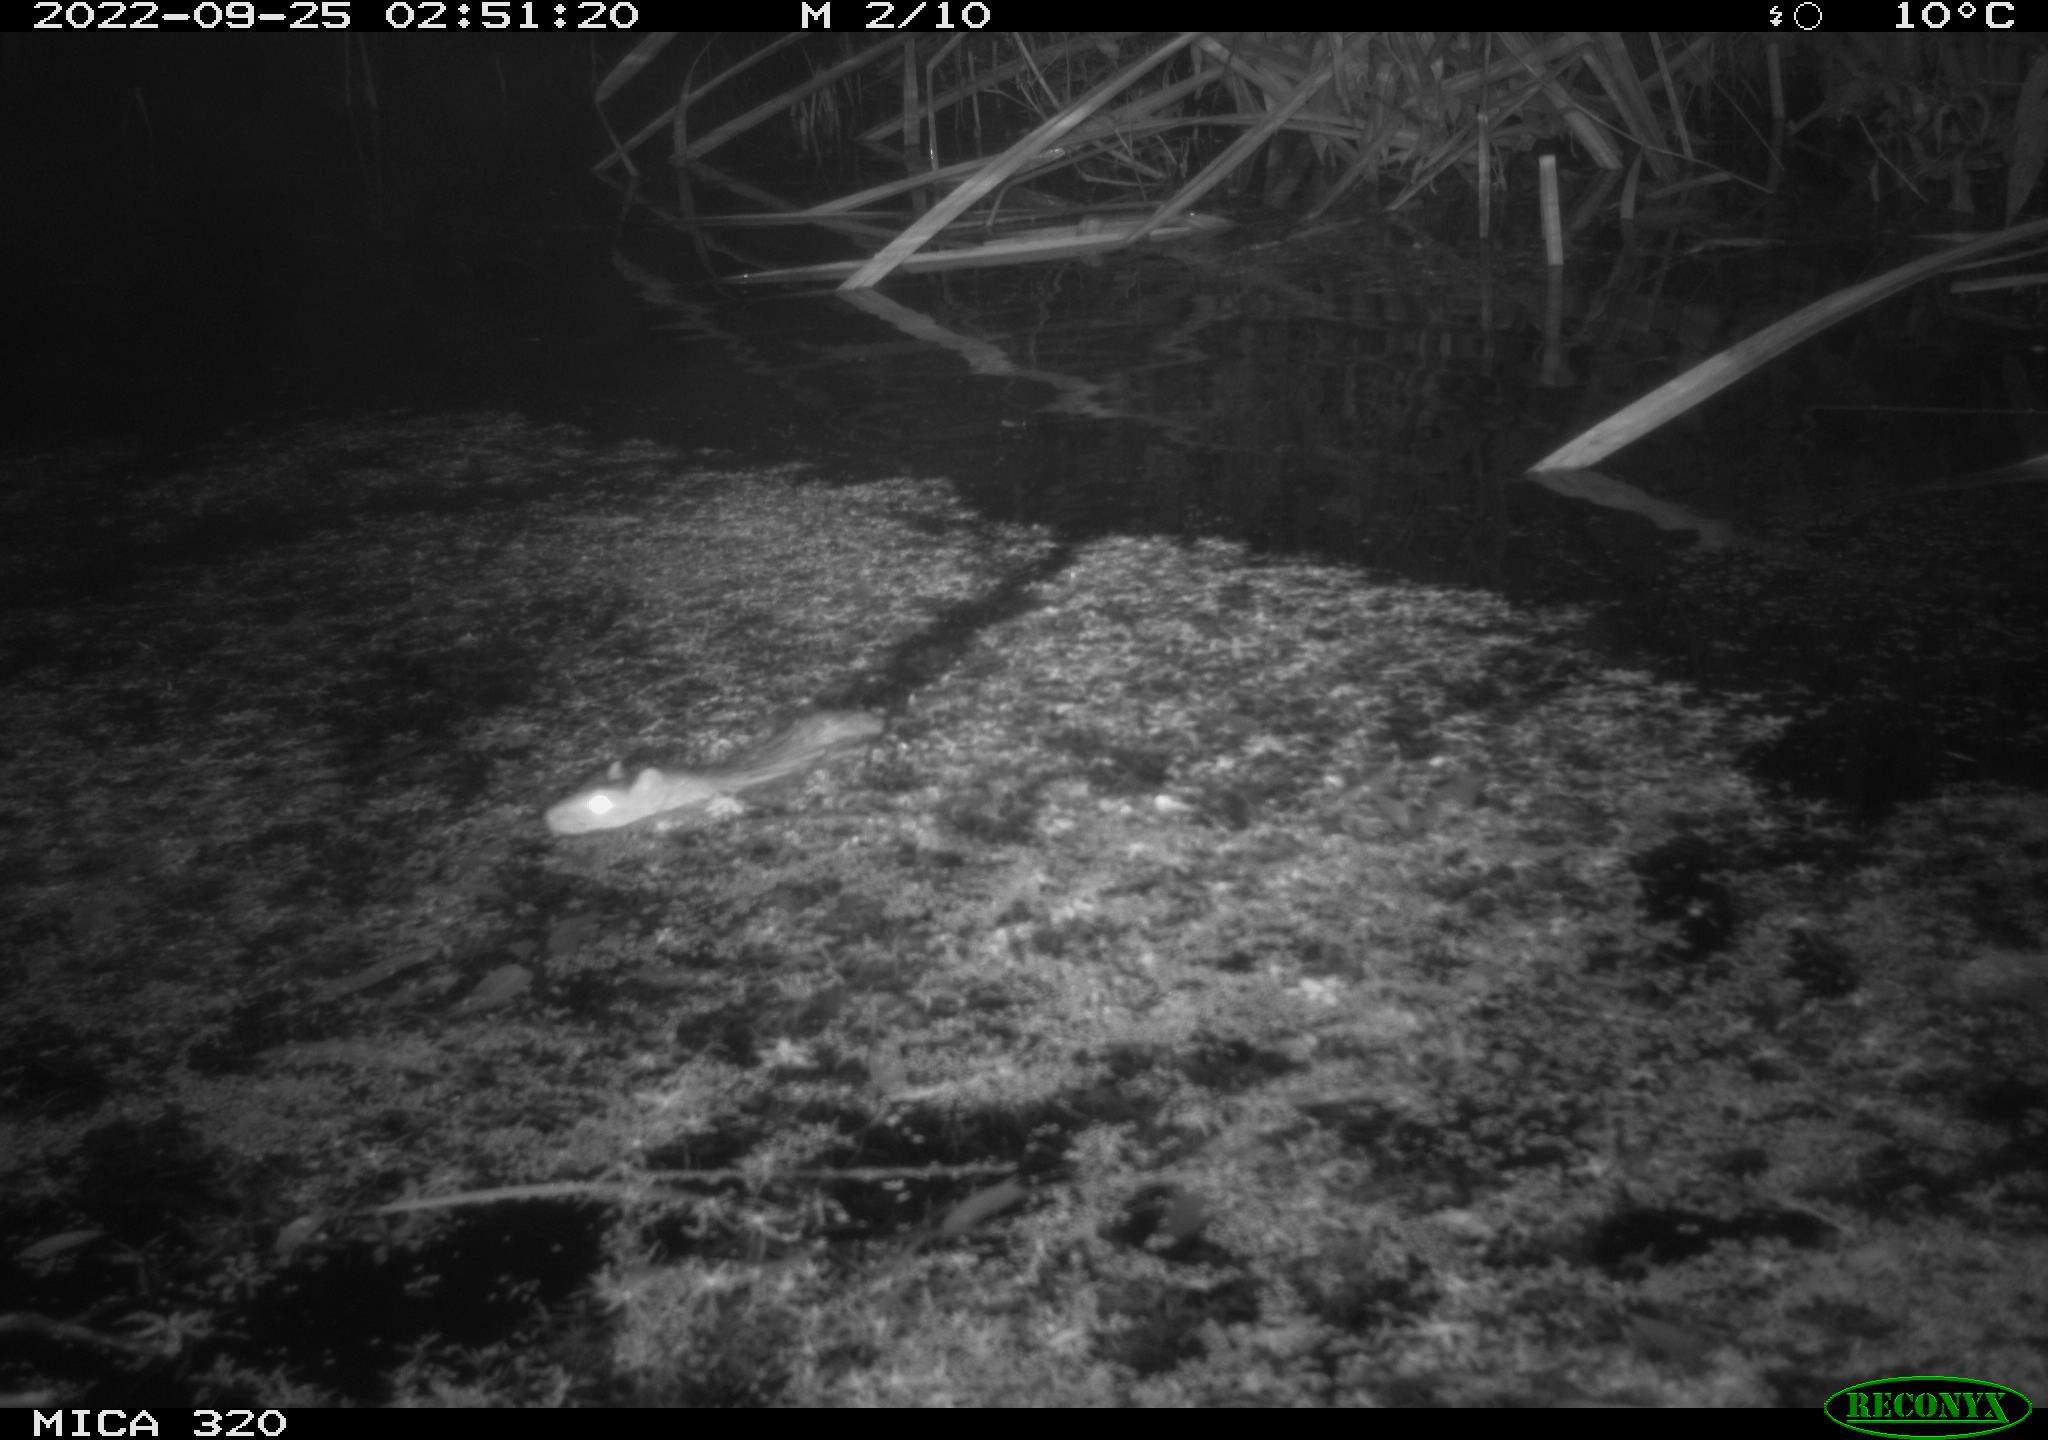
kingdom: Animalia
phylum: Chordata
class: Mammalia
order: Rodentia
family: Muridae
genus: Rattus
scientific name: Rattus norvegicus
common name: Brown rat
